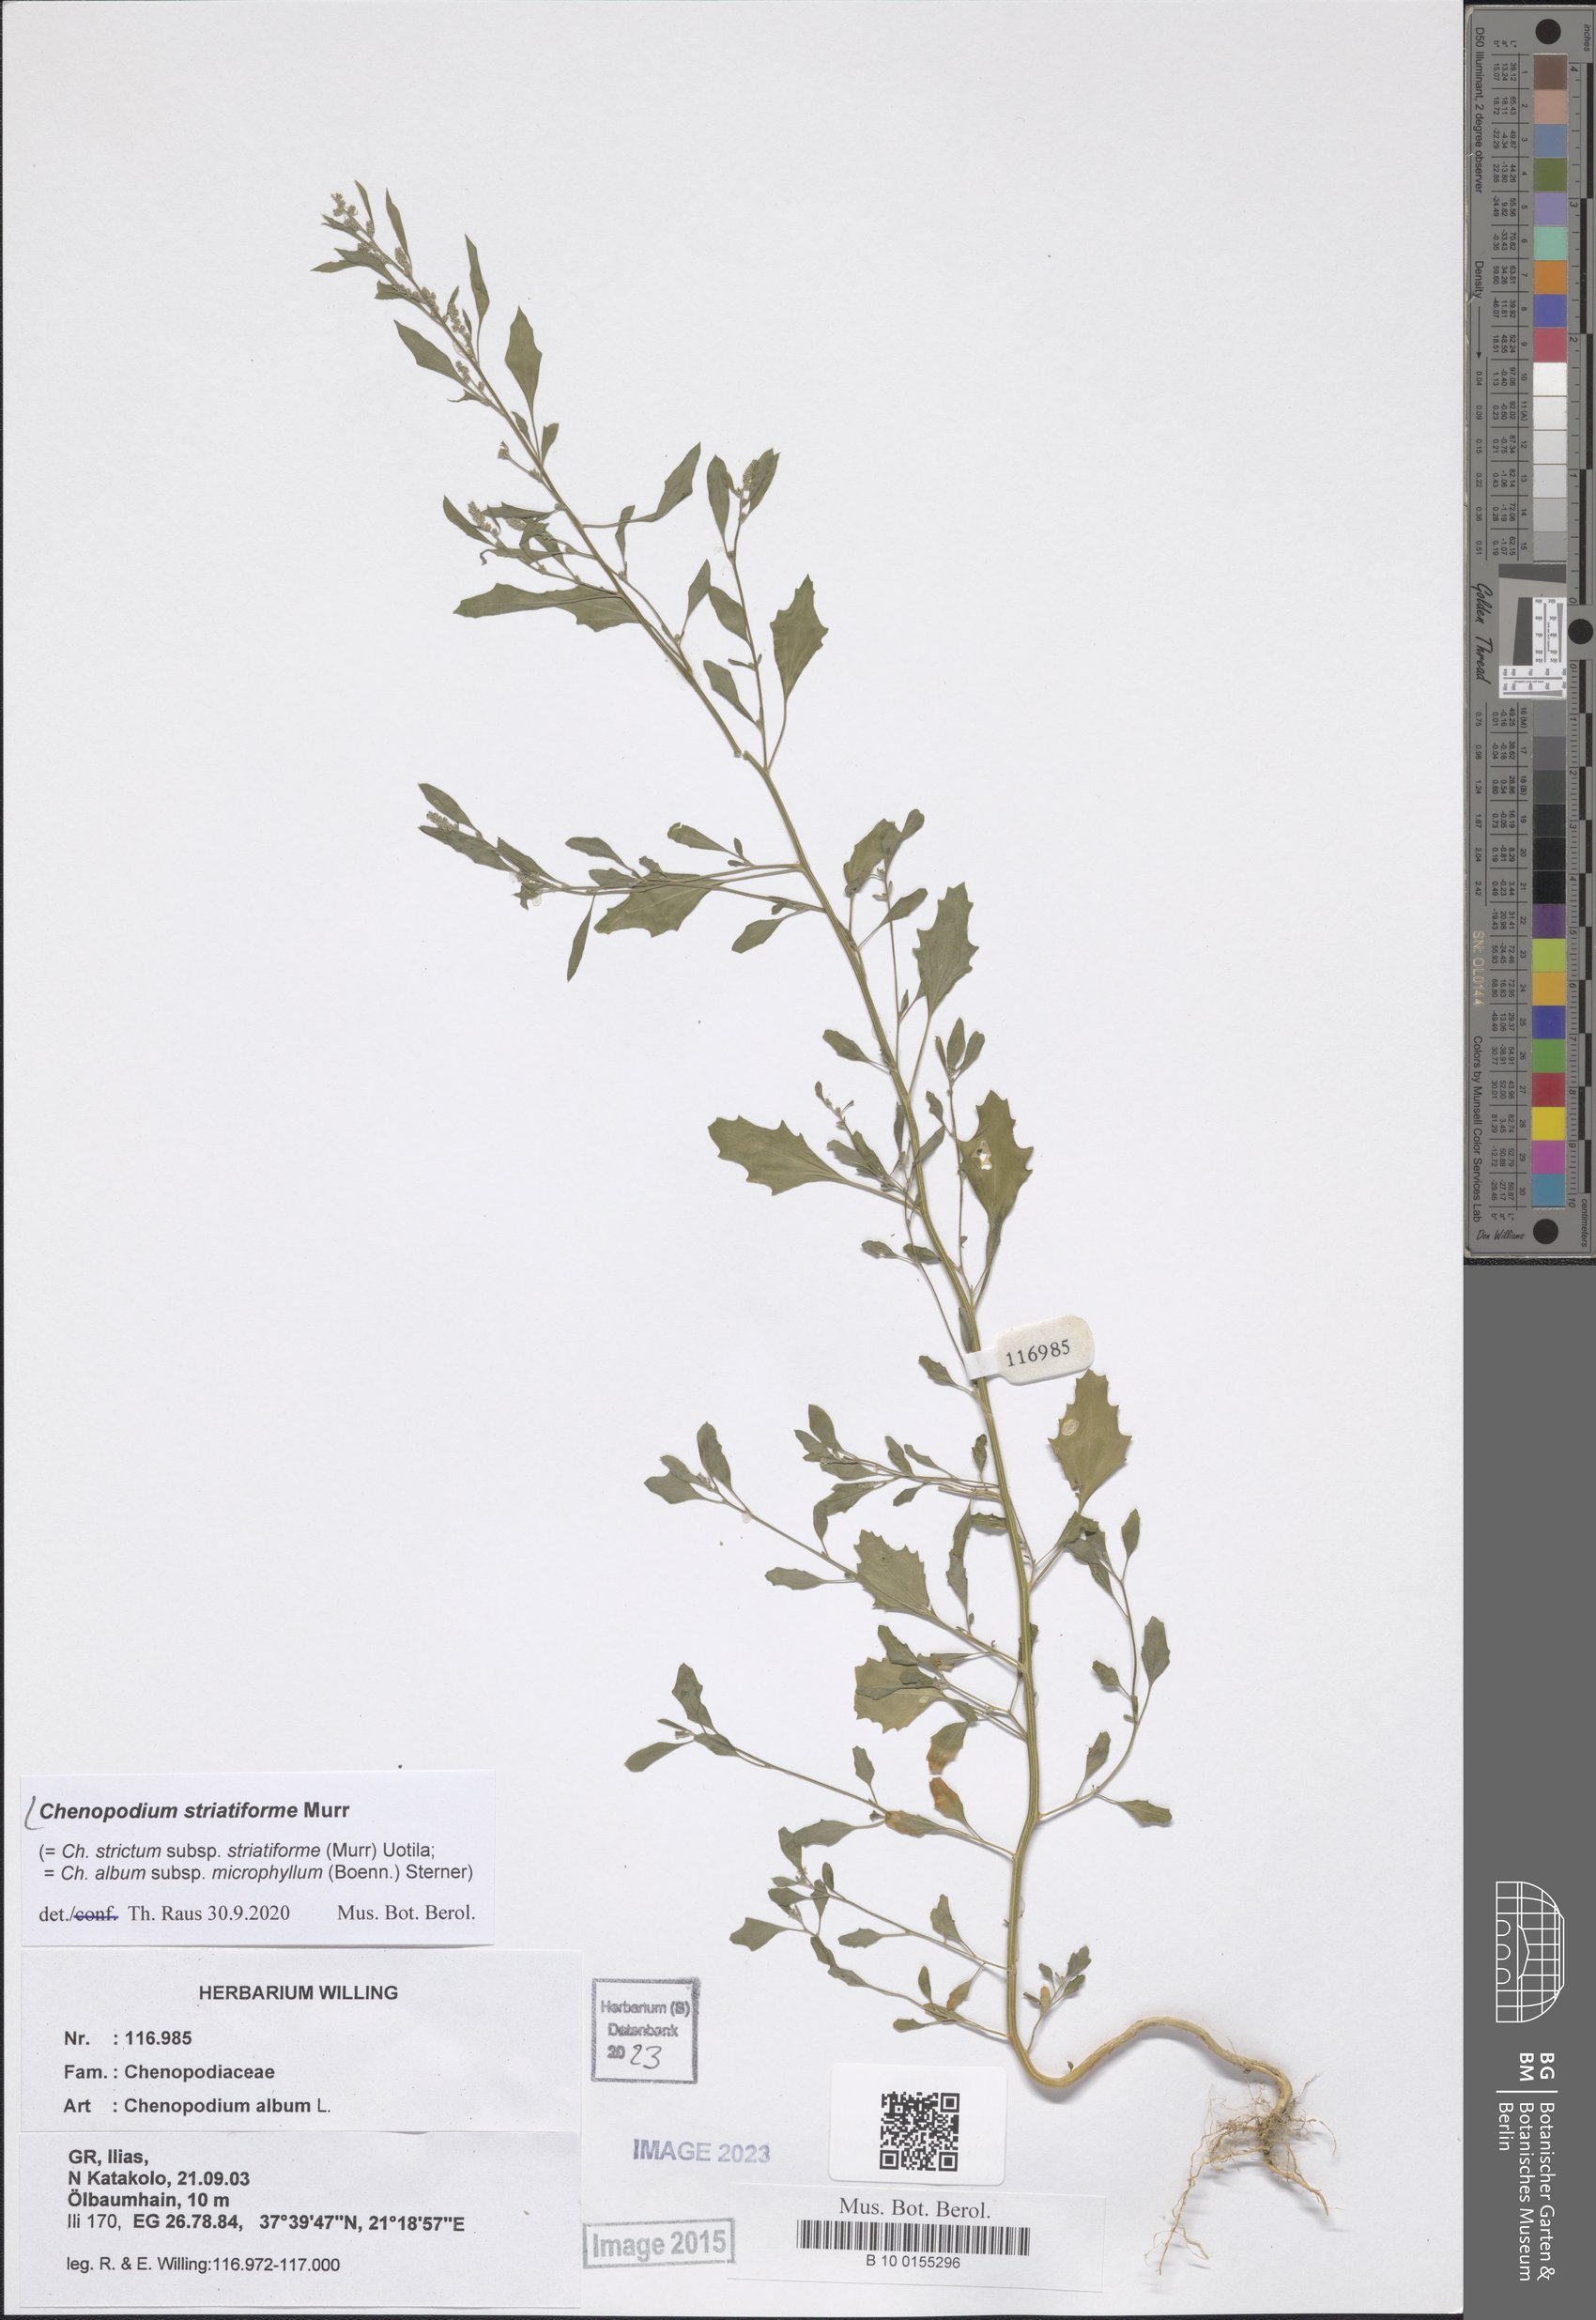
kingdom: Plantae
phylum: Tracheophyta
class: Magnoliopsida
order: Caryophyllales
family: Amaranthaceae
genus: Chenopodium
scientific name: Chenopodium striatiforme
